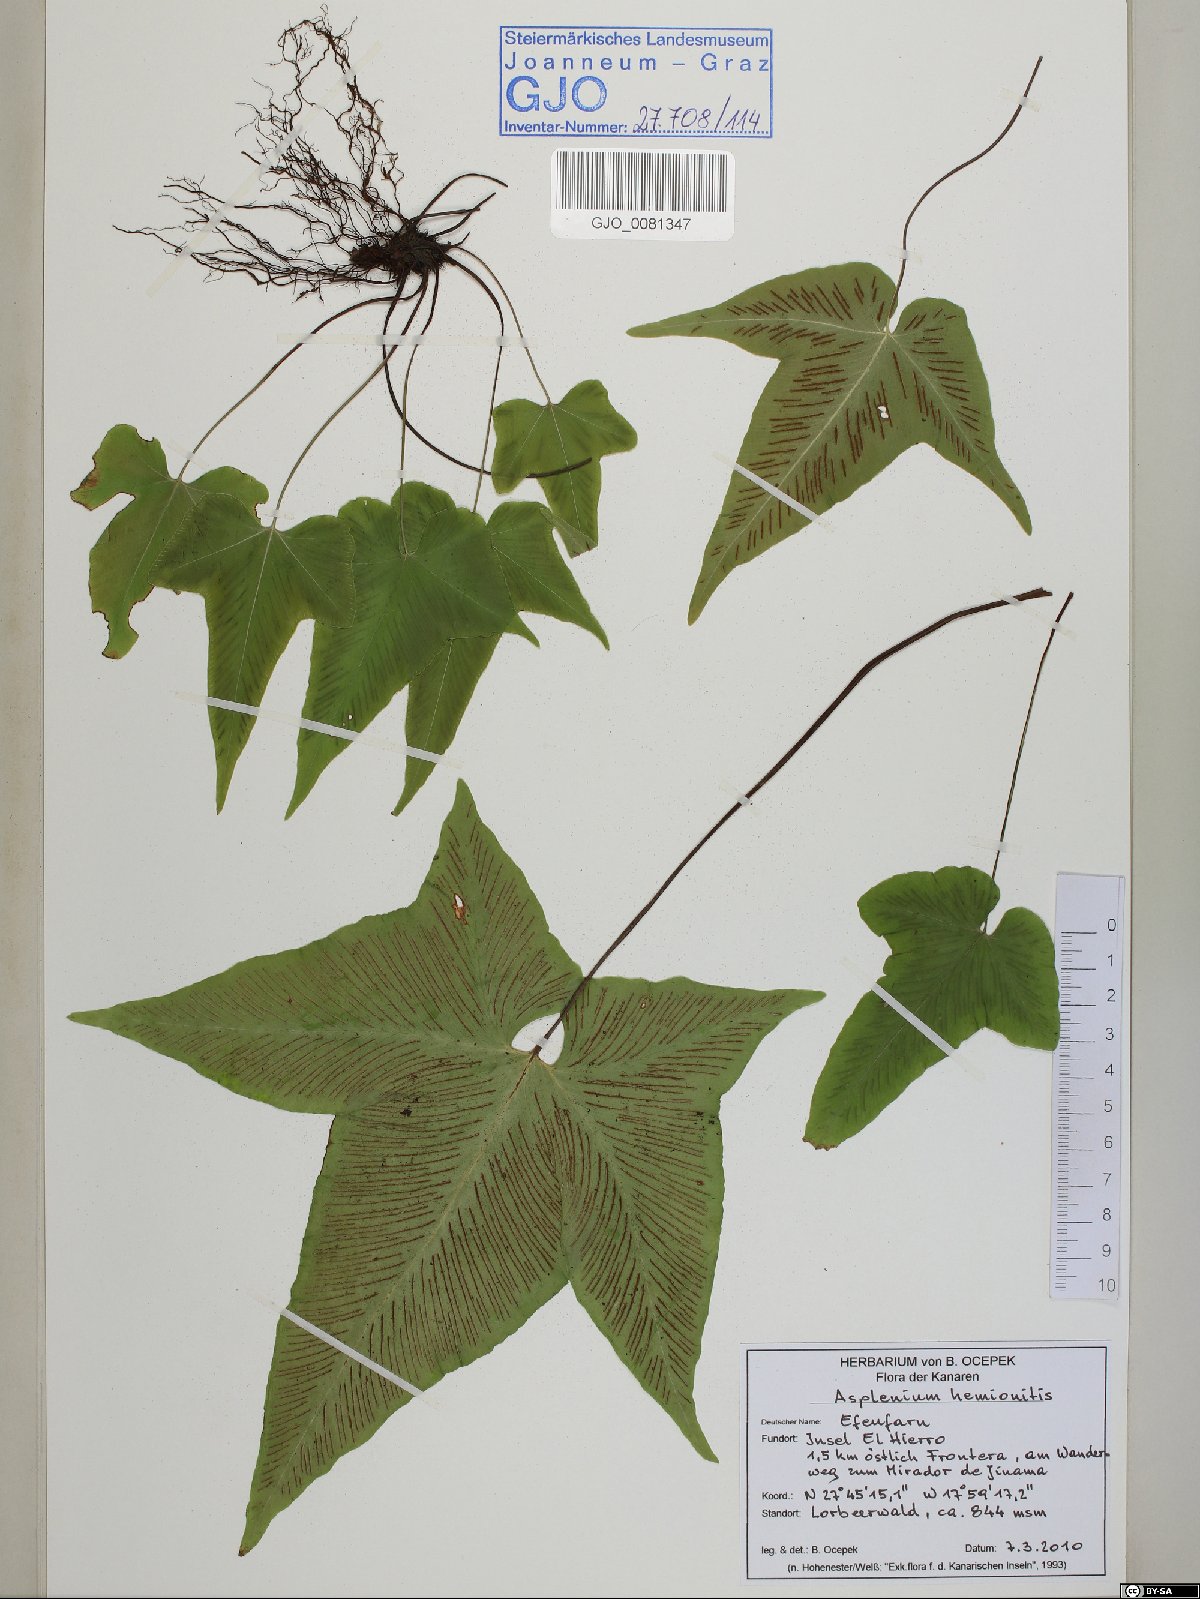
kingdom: Plantae
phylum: Tracheophyta
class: Polypodiopsida
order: Polypodiales
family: Aspleniaceae
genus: Asplenium
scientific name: Asplenium hemionitis
